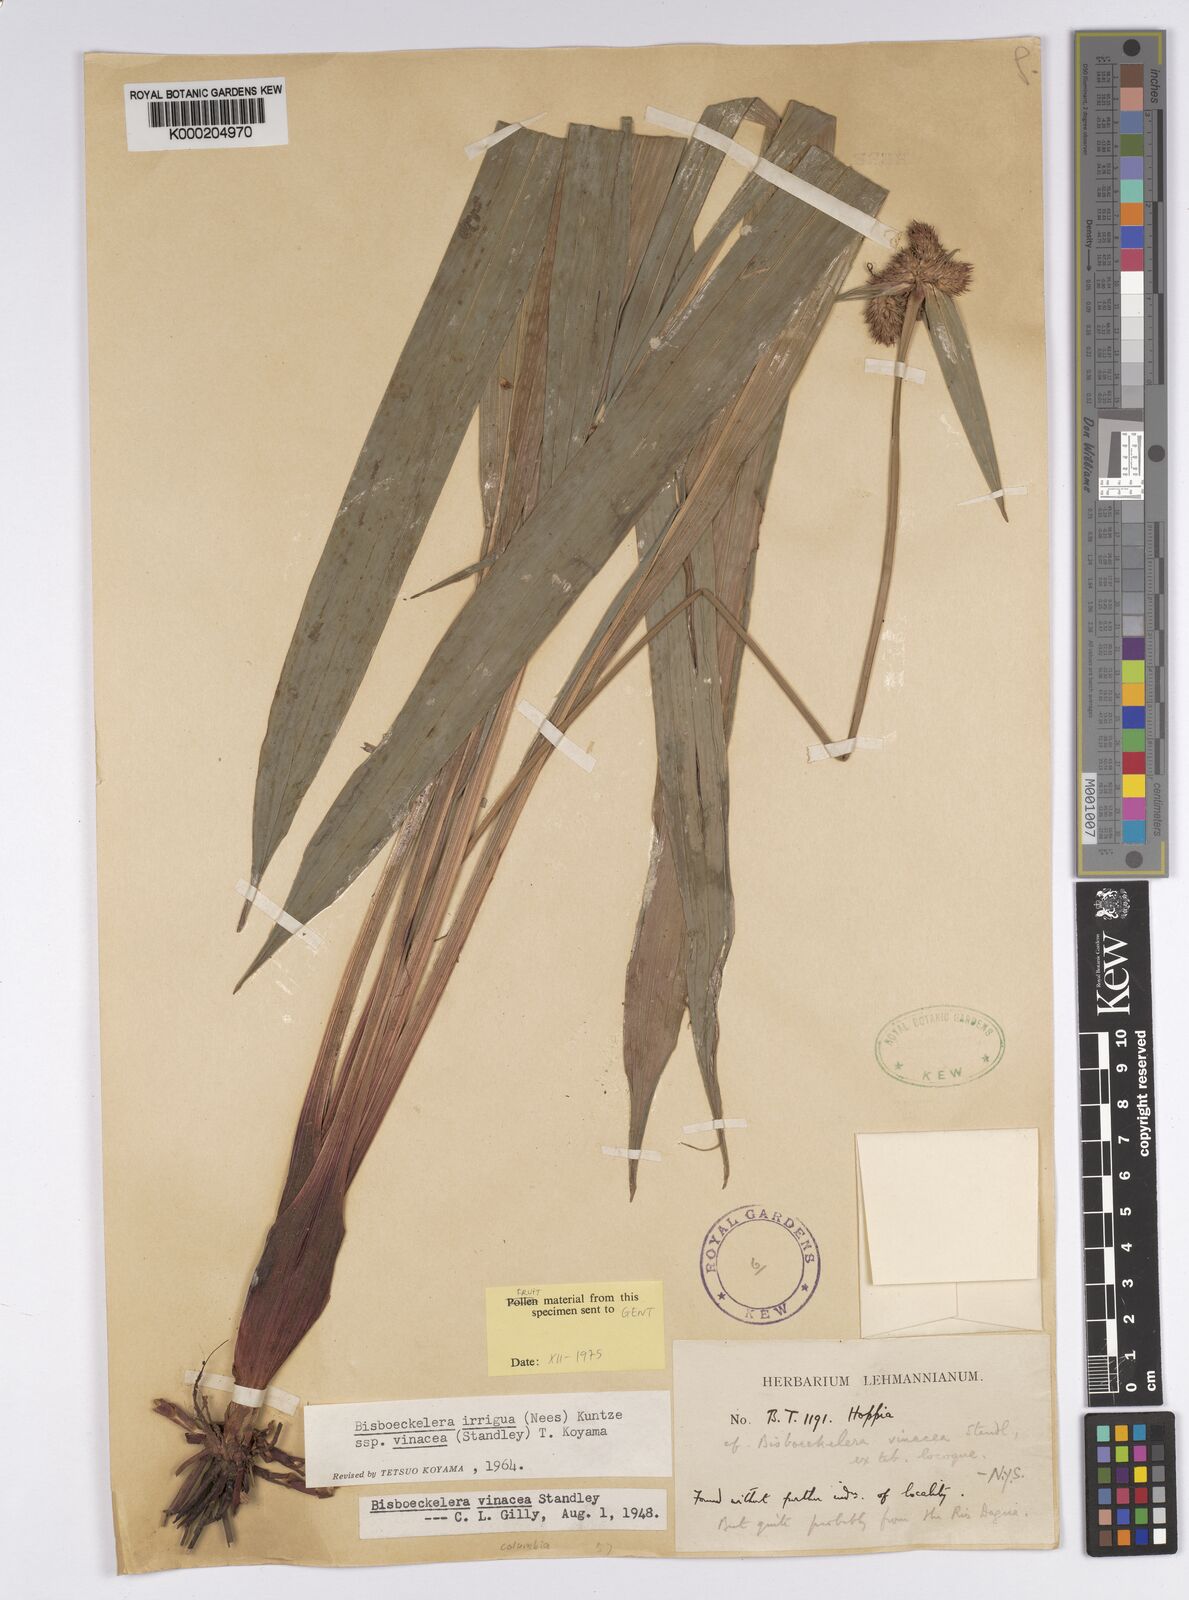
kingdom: Plantae
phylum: Tracheophyta
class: Liliopsida
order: Poales
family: Cyperaceae
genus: Bisboeckelera
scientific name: Bisboeckelera vinacea
